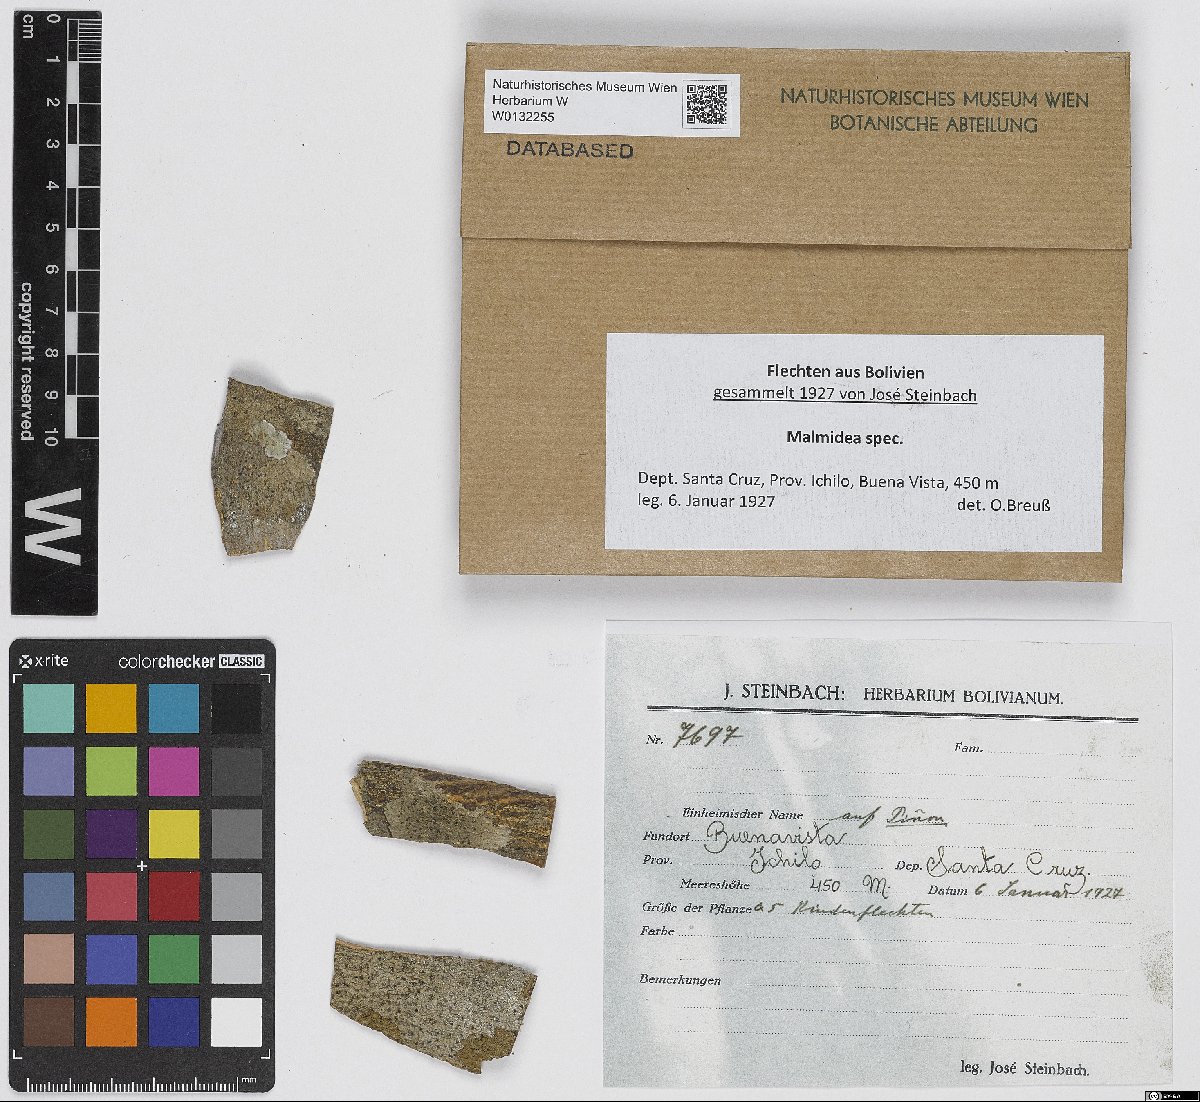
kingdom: Fungi
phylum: Ascomycota
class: Lecanoromycetes
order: Lecanorales
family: Malmideaceae
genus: Malmidea
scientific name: Malmidea
